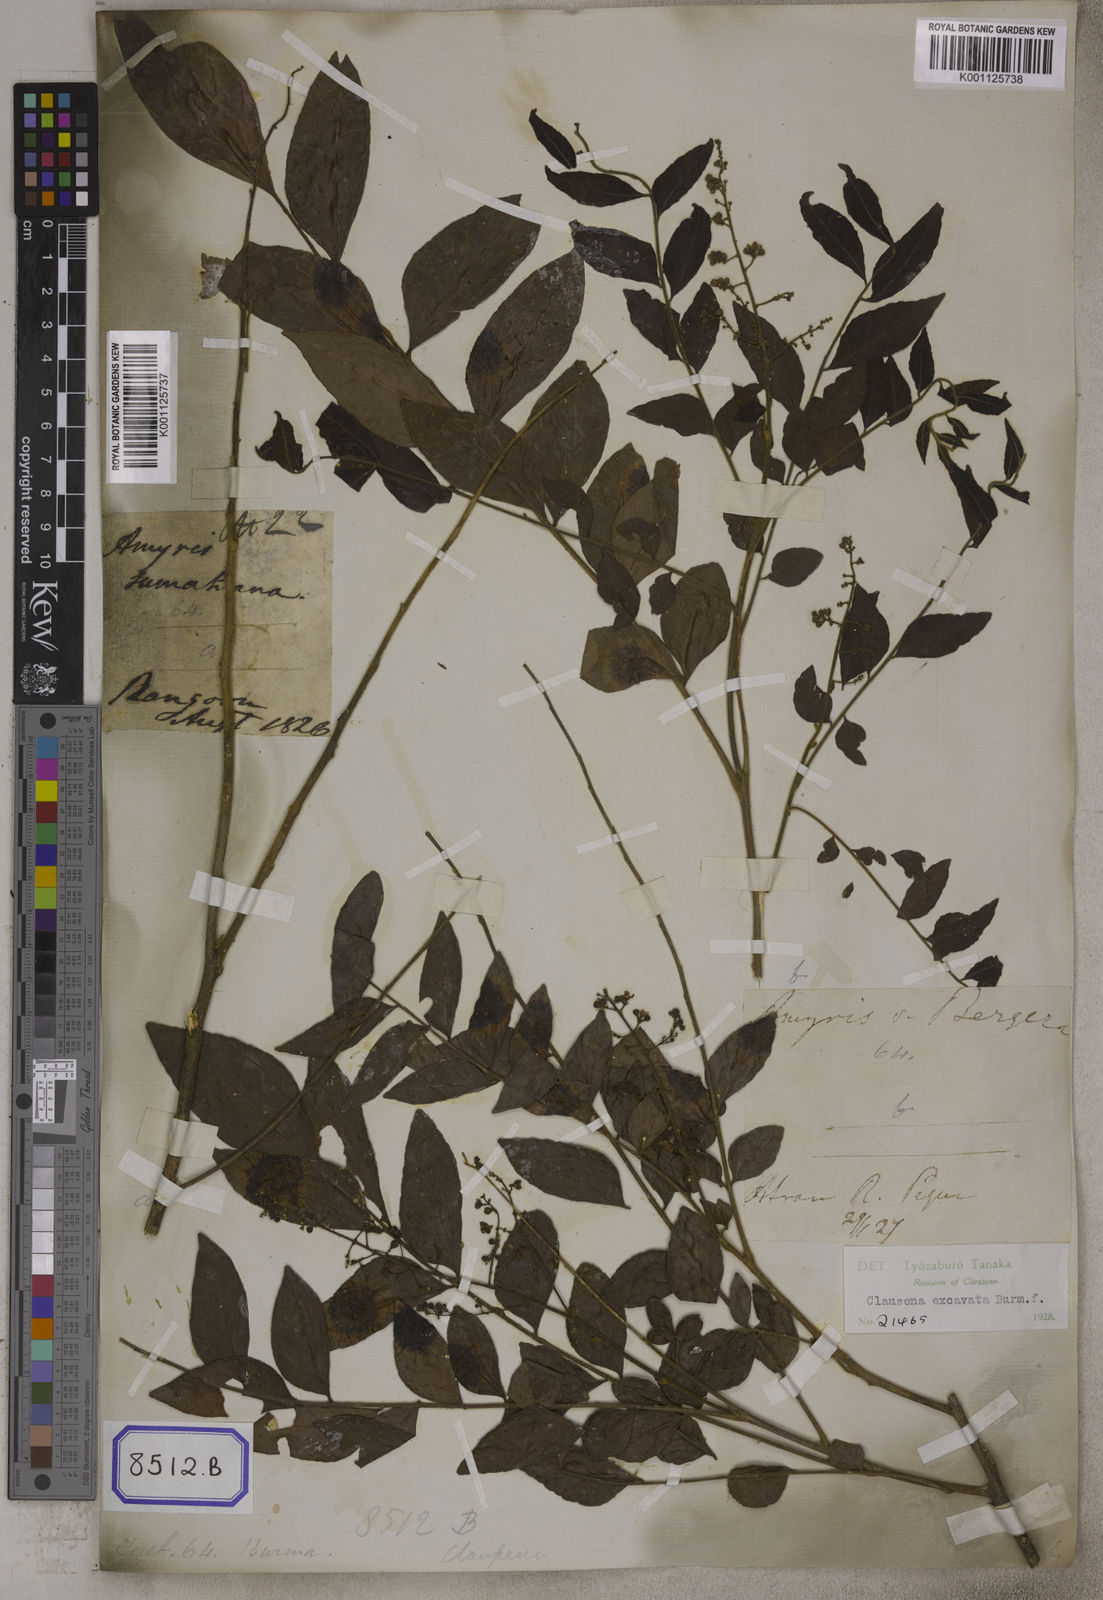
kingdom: Plantae
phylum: Tracheophyta
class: Magnoliopsida
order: Sapindales
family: Rutaceae
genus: Clausena
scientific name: Clausena
